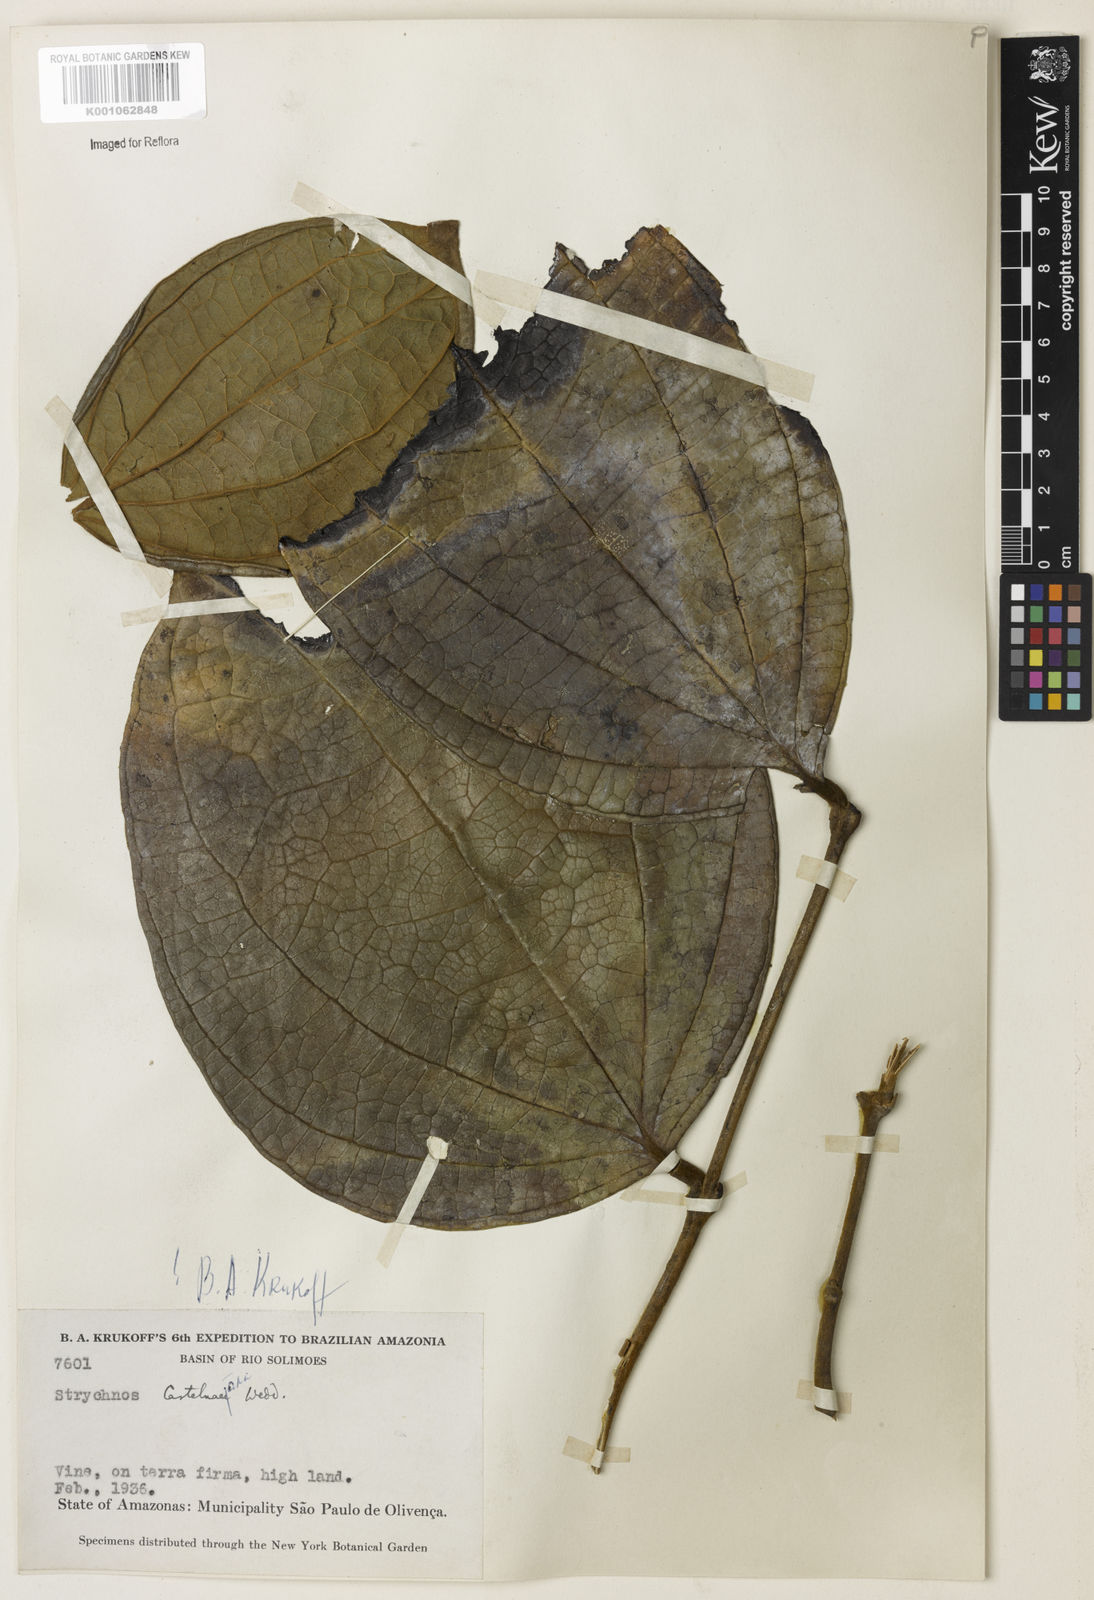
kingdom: Plantae
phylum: Tracheophyta
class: Magnoliopsida
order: Gentianales
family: Loganiaceae
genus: Strychnos
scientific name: Strychnos
